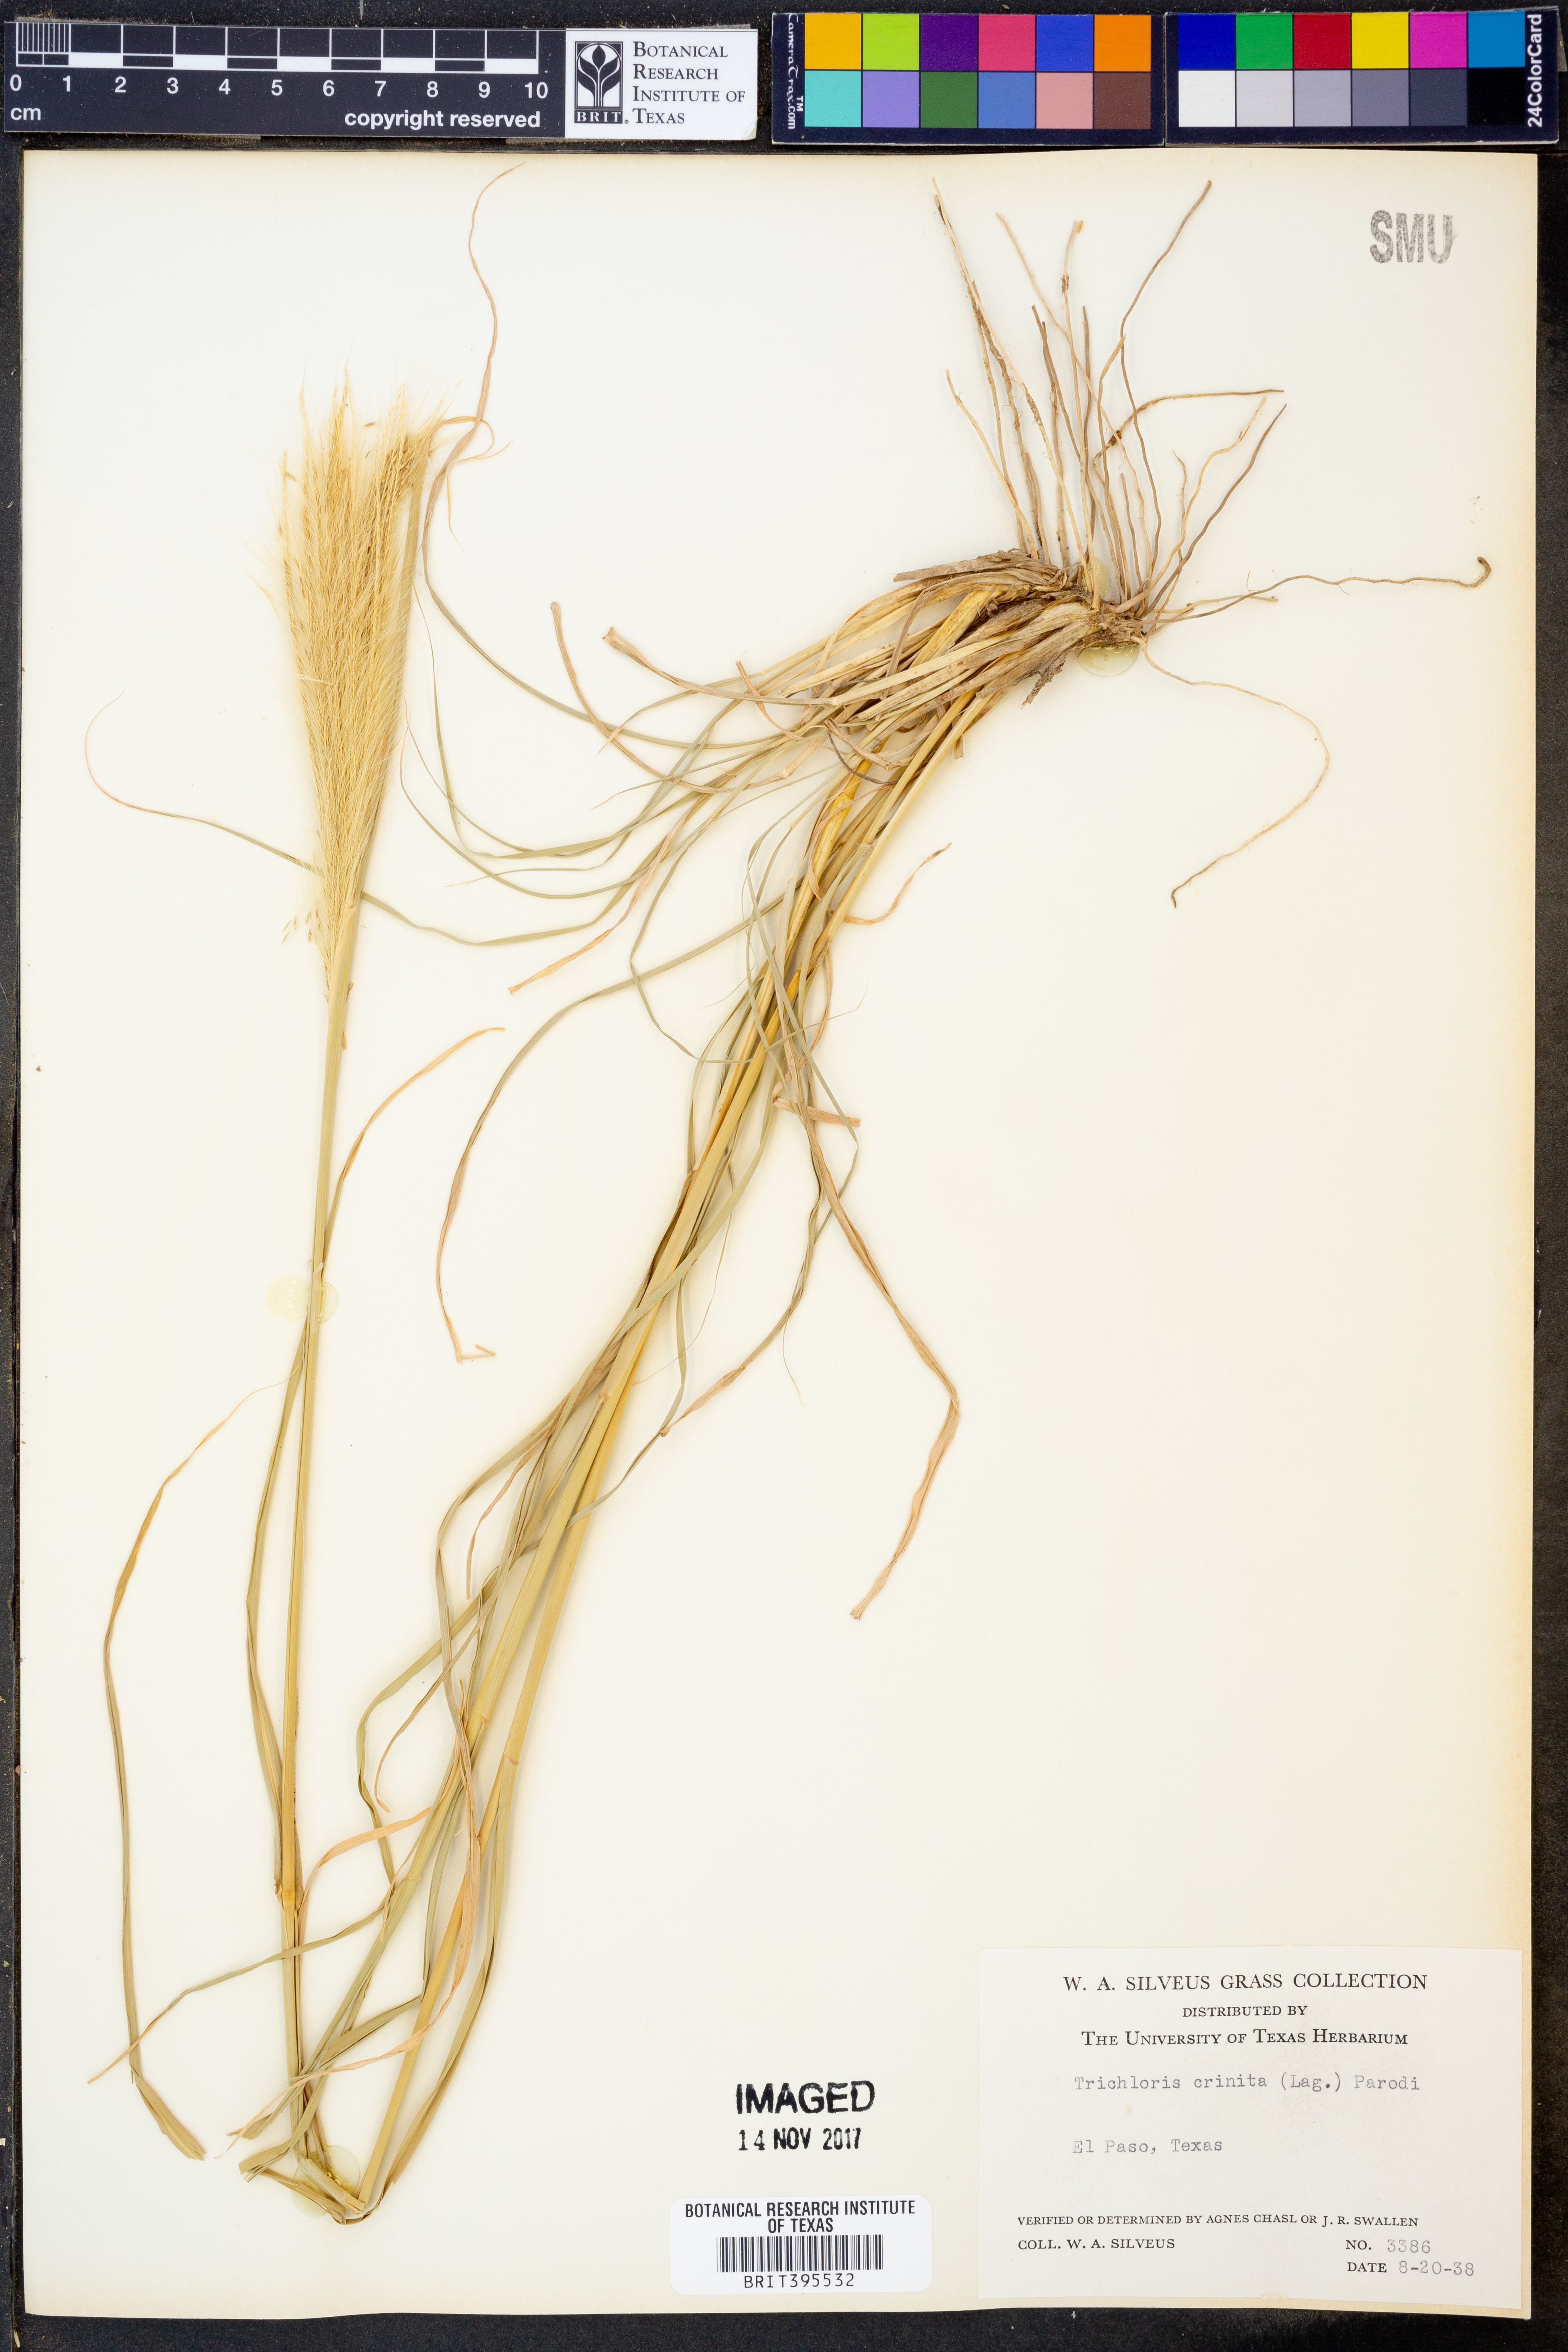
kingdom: Plantae
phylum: Tracheophyta
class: Liliopsida
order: Poales
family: Poaceae
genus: Leptochloa
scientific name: Leptochloa crinita
